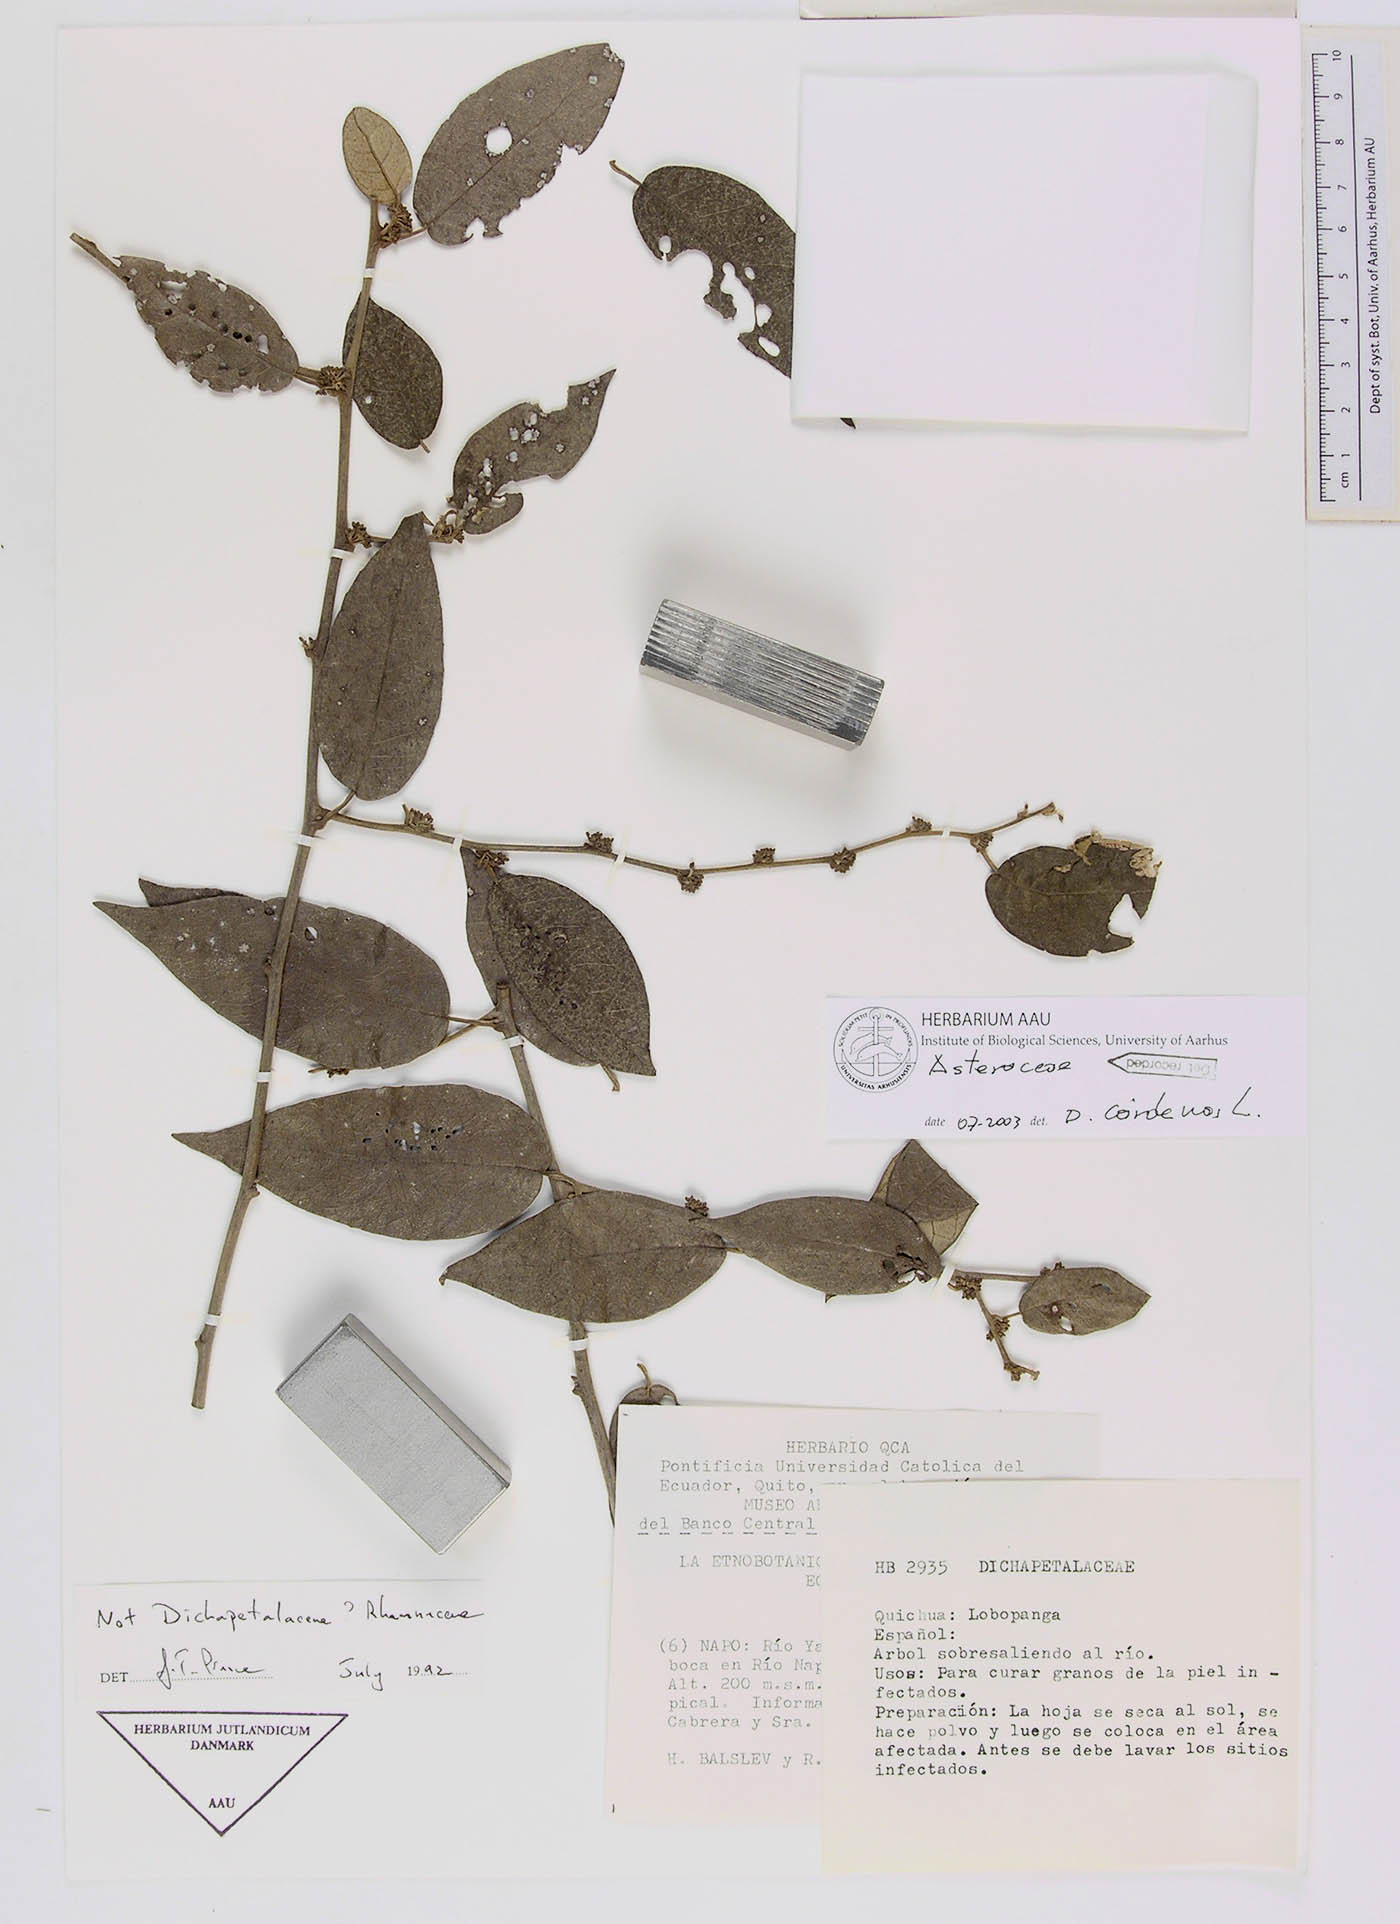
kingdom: Plantae
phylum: Tracheophyta
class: Magnoliopsida
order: Asterales
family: Asteraceae
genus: Piptocarpha
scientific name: Piptocarpha poeppigiana
